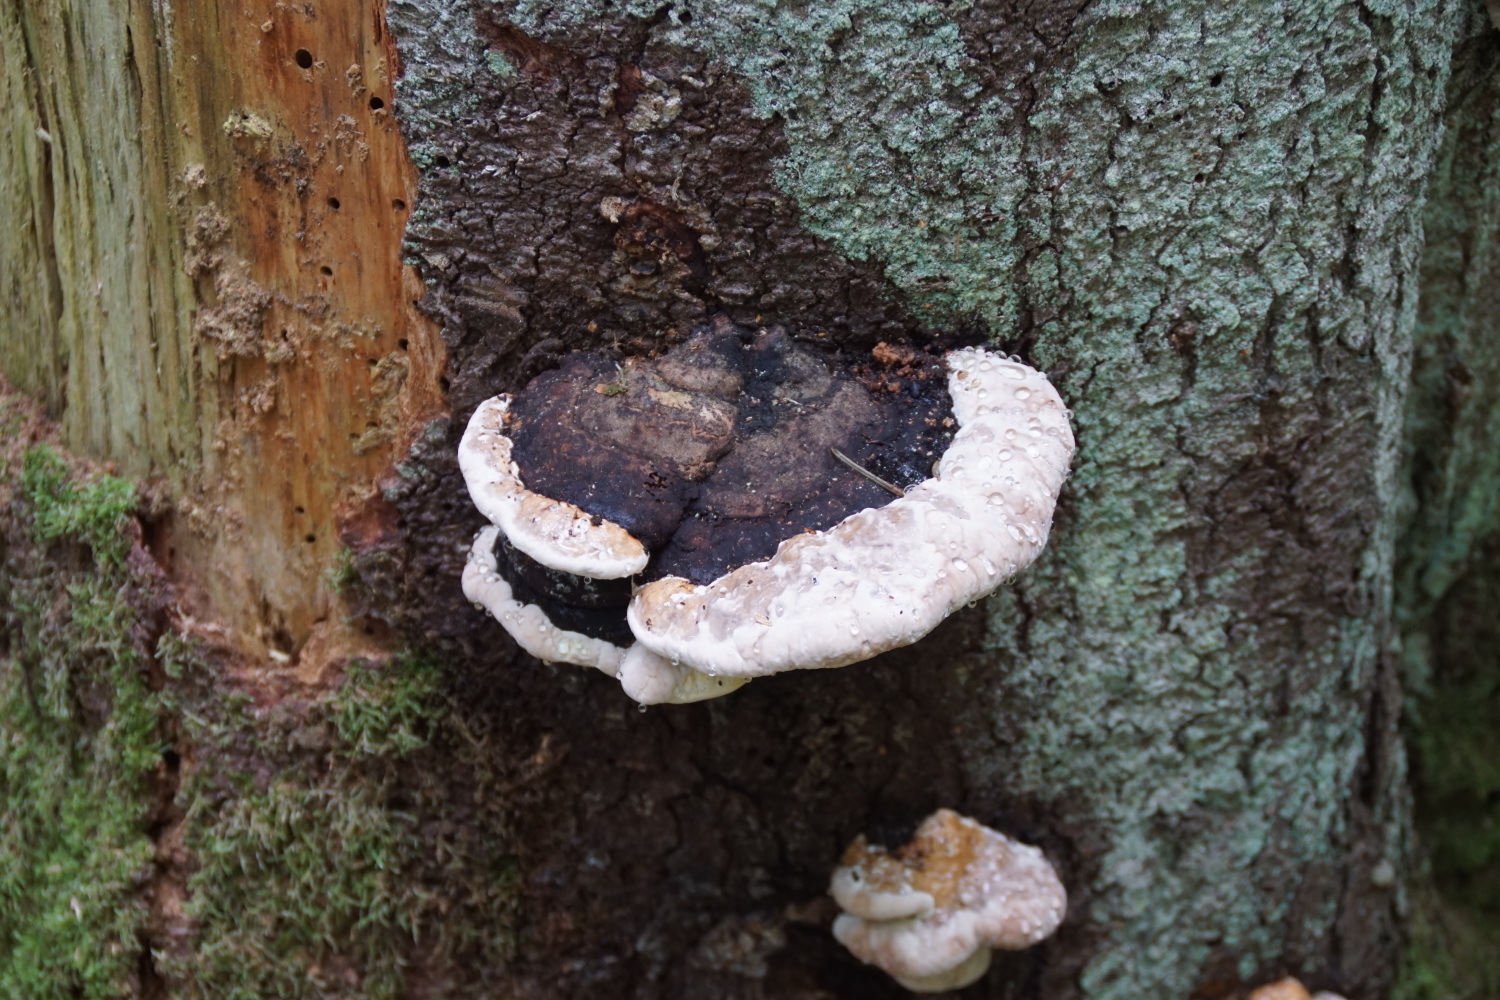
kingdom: Fungi
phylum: Basidiomycota
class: Agaricomycetes
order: Polyporales
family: Fomitopsidaceae
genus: Fomitopsis
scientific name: Fomitopsis pinicola
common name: randbæltet hovporesvamp
